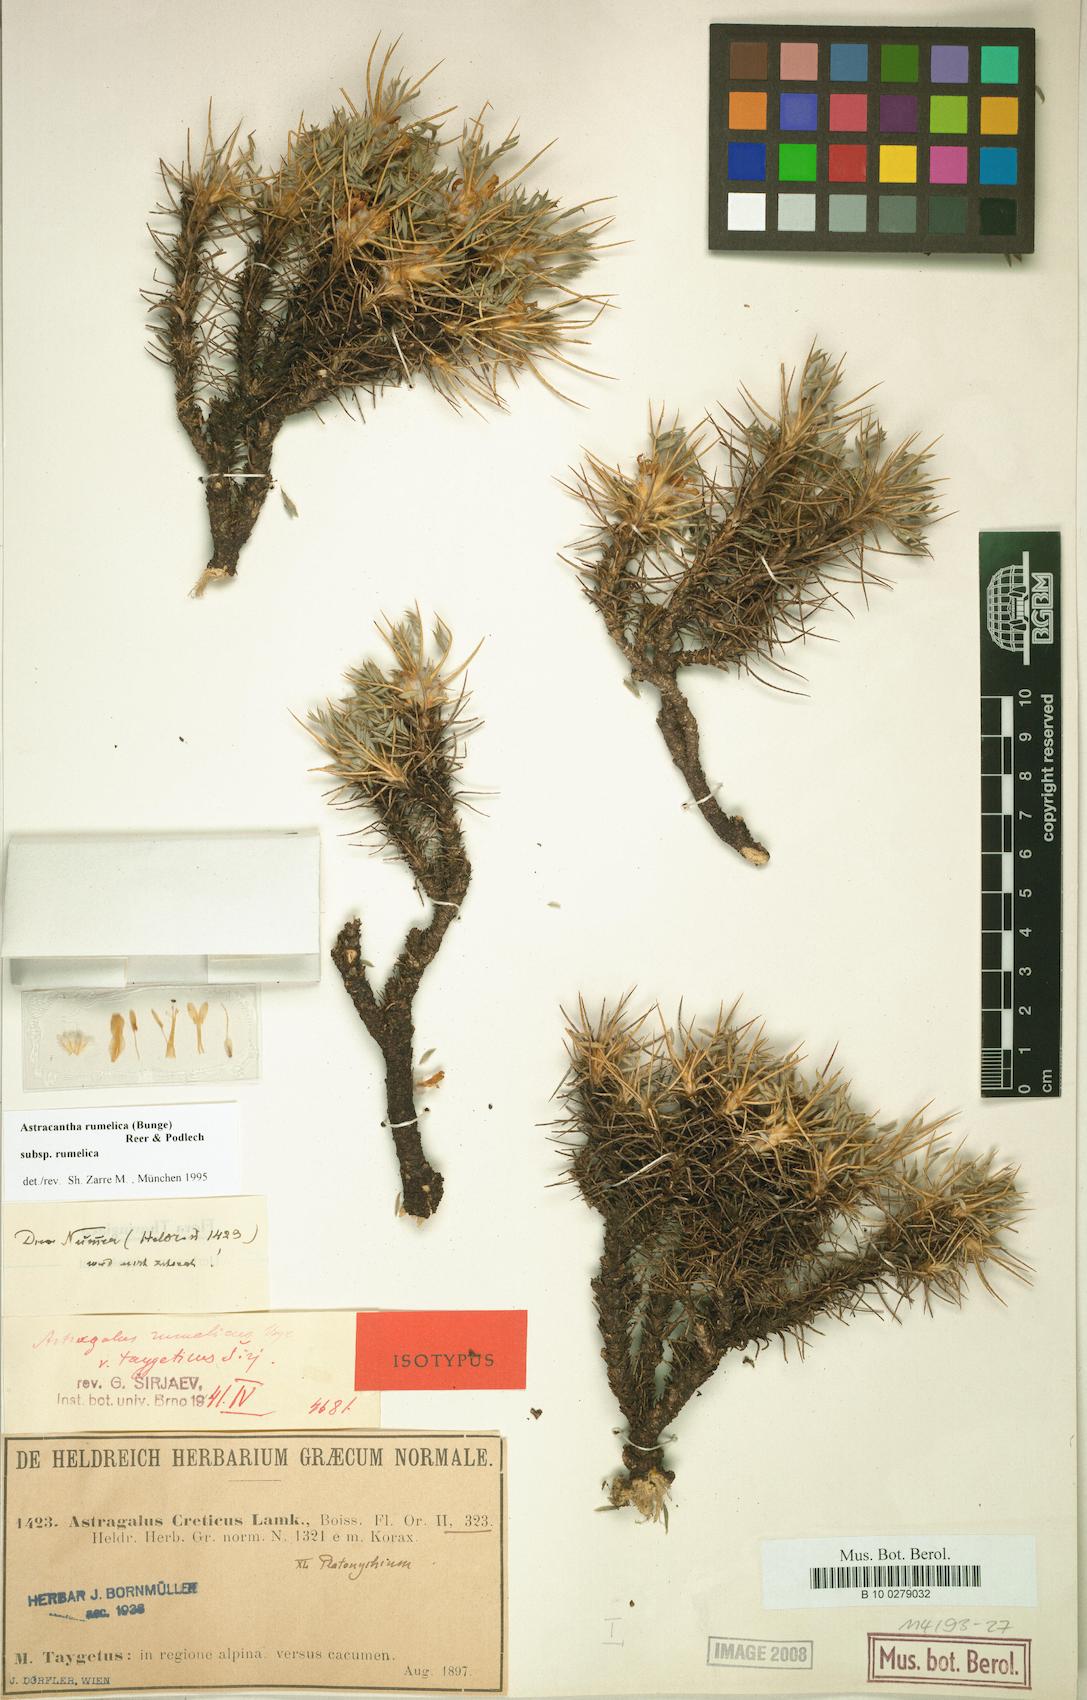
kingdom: Plantae
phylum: Tracheophyta
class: Magnoliopsida
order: Fabales
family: Fabaceae
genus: Astragalus
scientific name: Astragalus rumelicus
